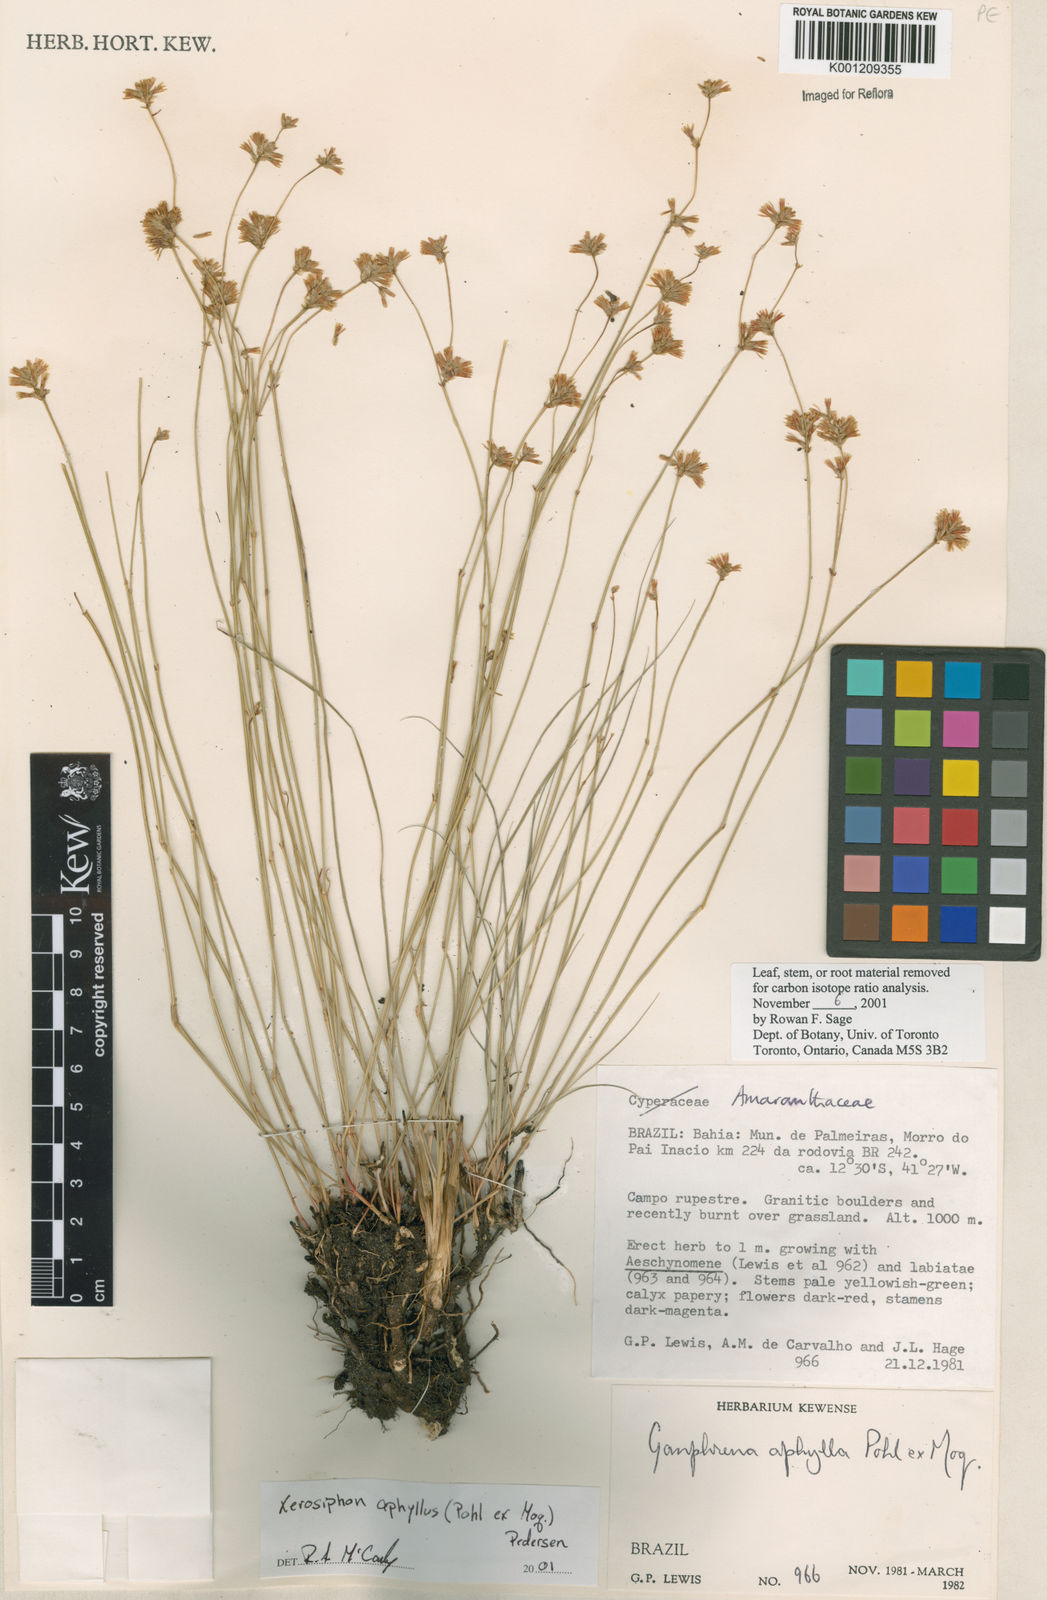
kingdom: Plantae
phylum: Tracheophyta
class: Magnoliopsida
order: Caryophyllales
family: Amaranthaceae
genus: Gomphrena
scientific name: Gomphrena aphylla
